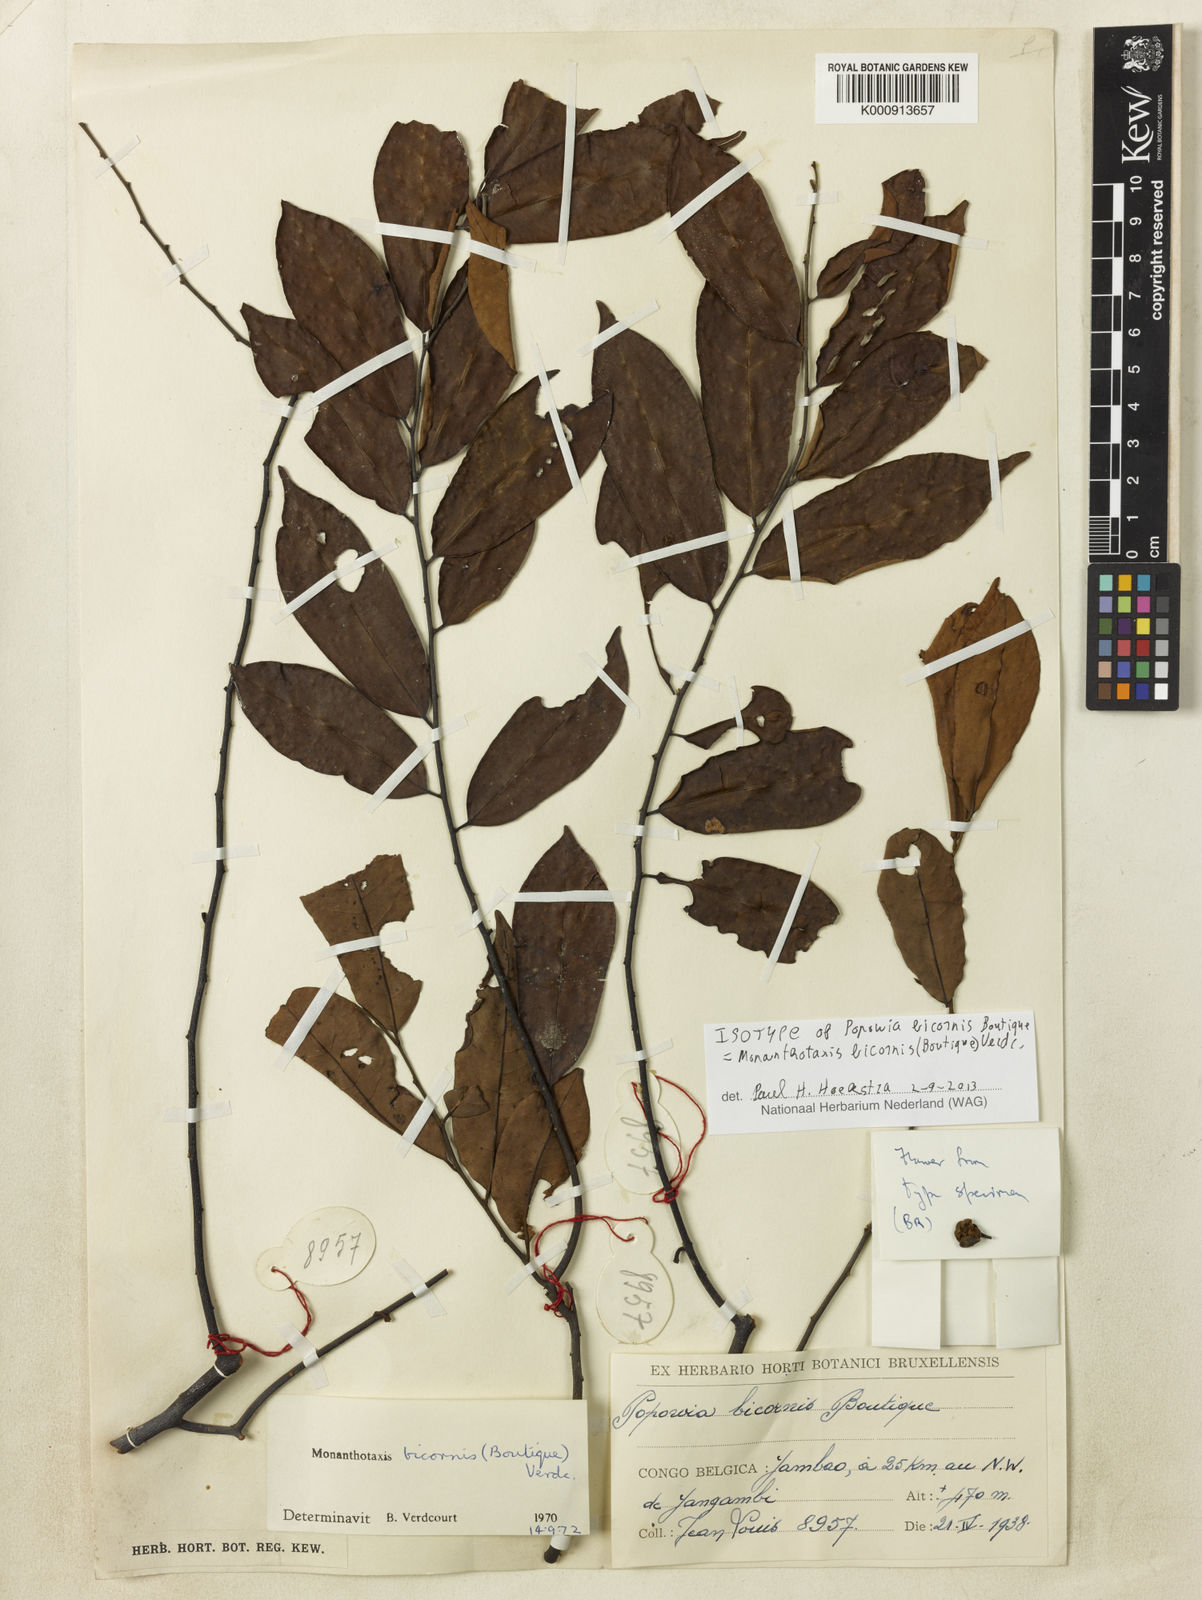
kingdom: Plantae
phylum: Tracheophyta
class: Magnoliopsida
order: Magnoliales
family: Annonaceae
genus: Monanthotaxis
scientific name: Monanthotaxis bicornis
